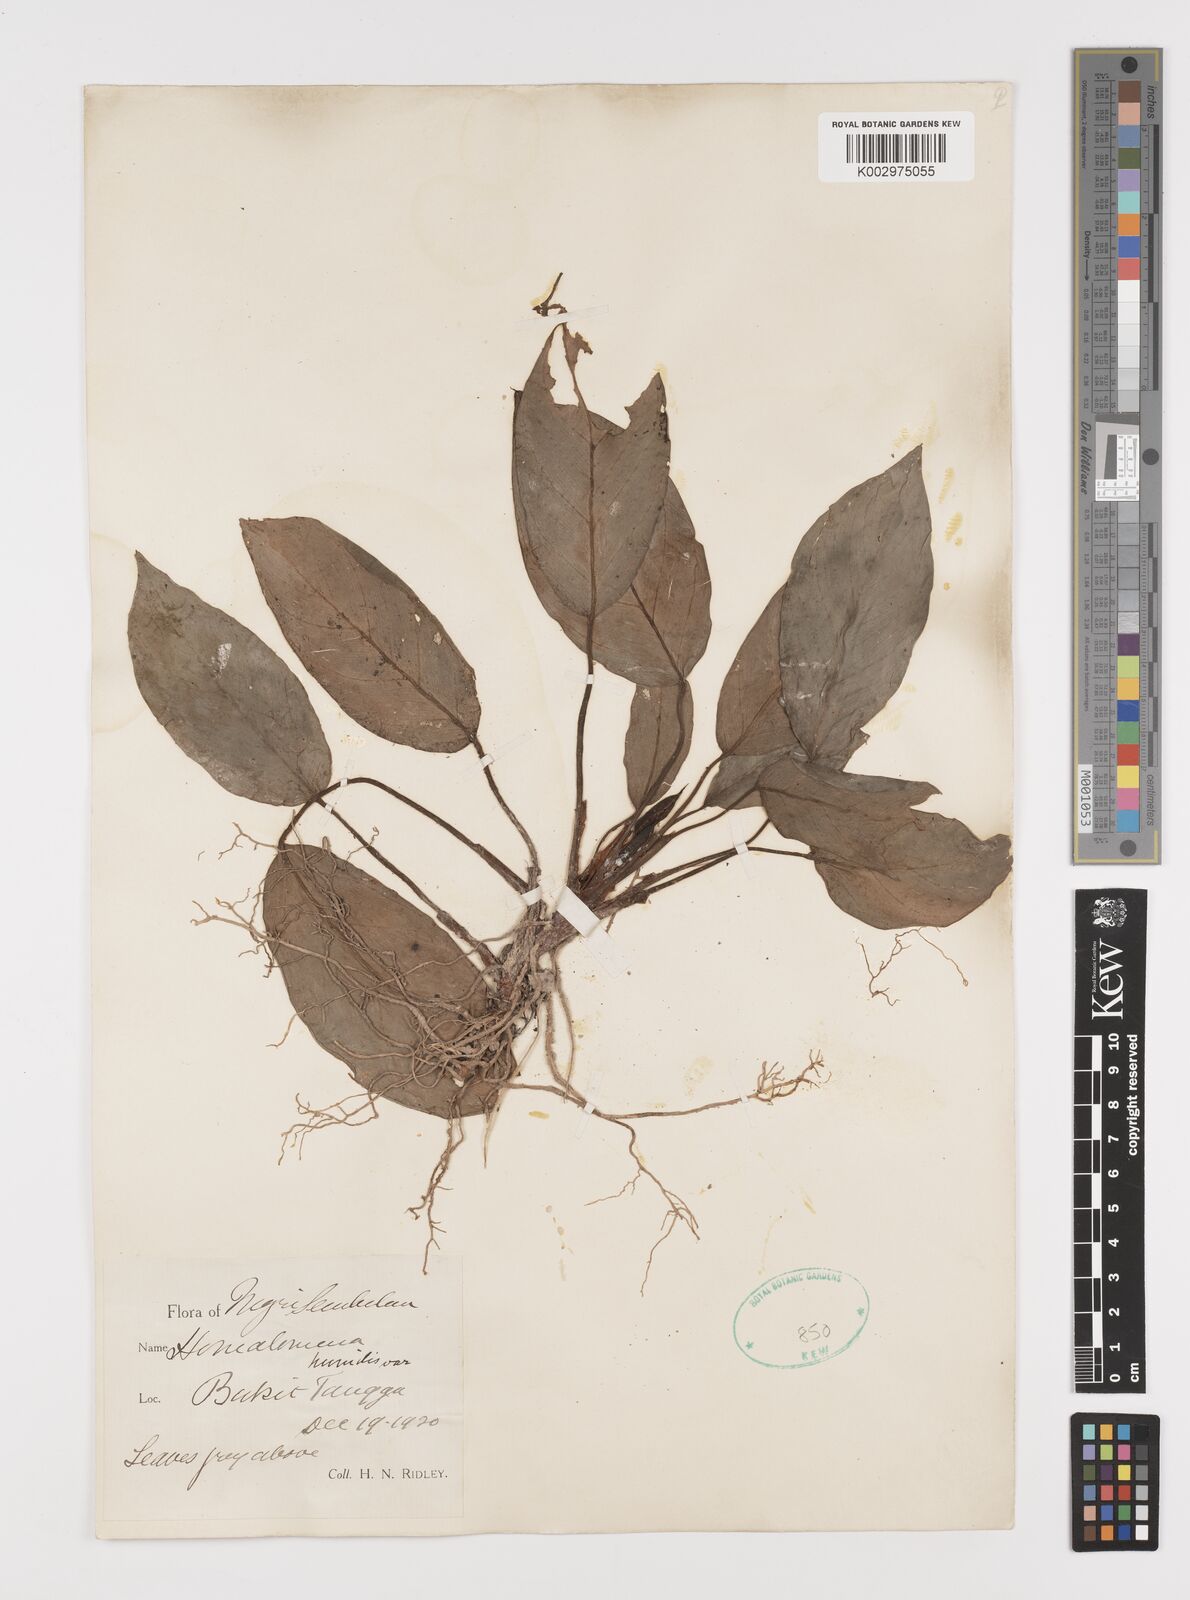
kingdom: Plantae
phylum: Tracheophyta
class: Liliopsida
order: Alismatales
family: Araceae
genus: Homalomena
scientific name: Homalomena humilis
